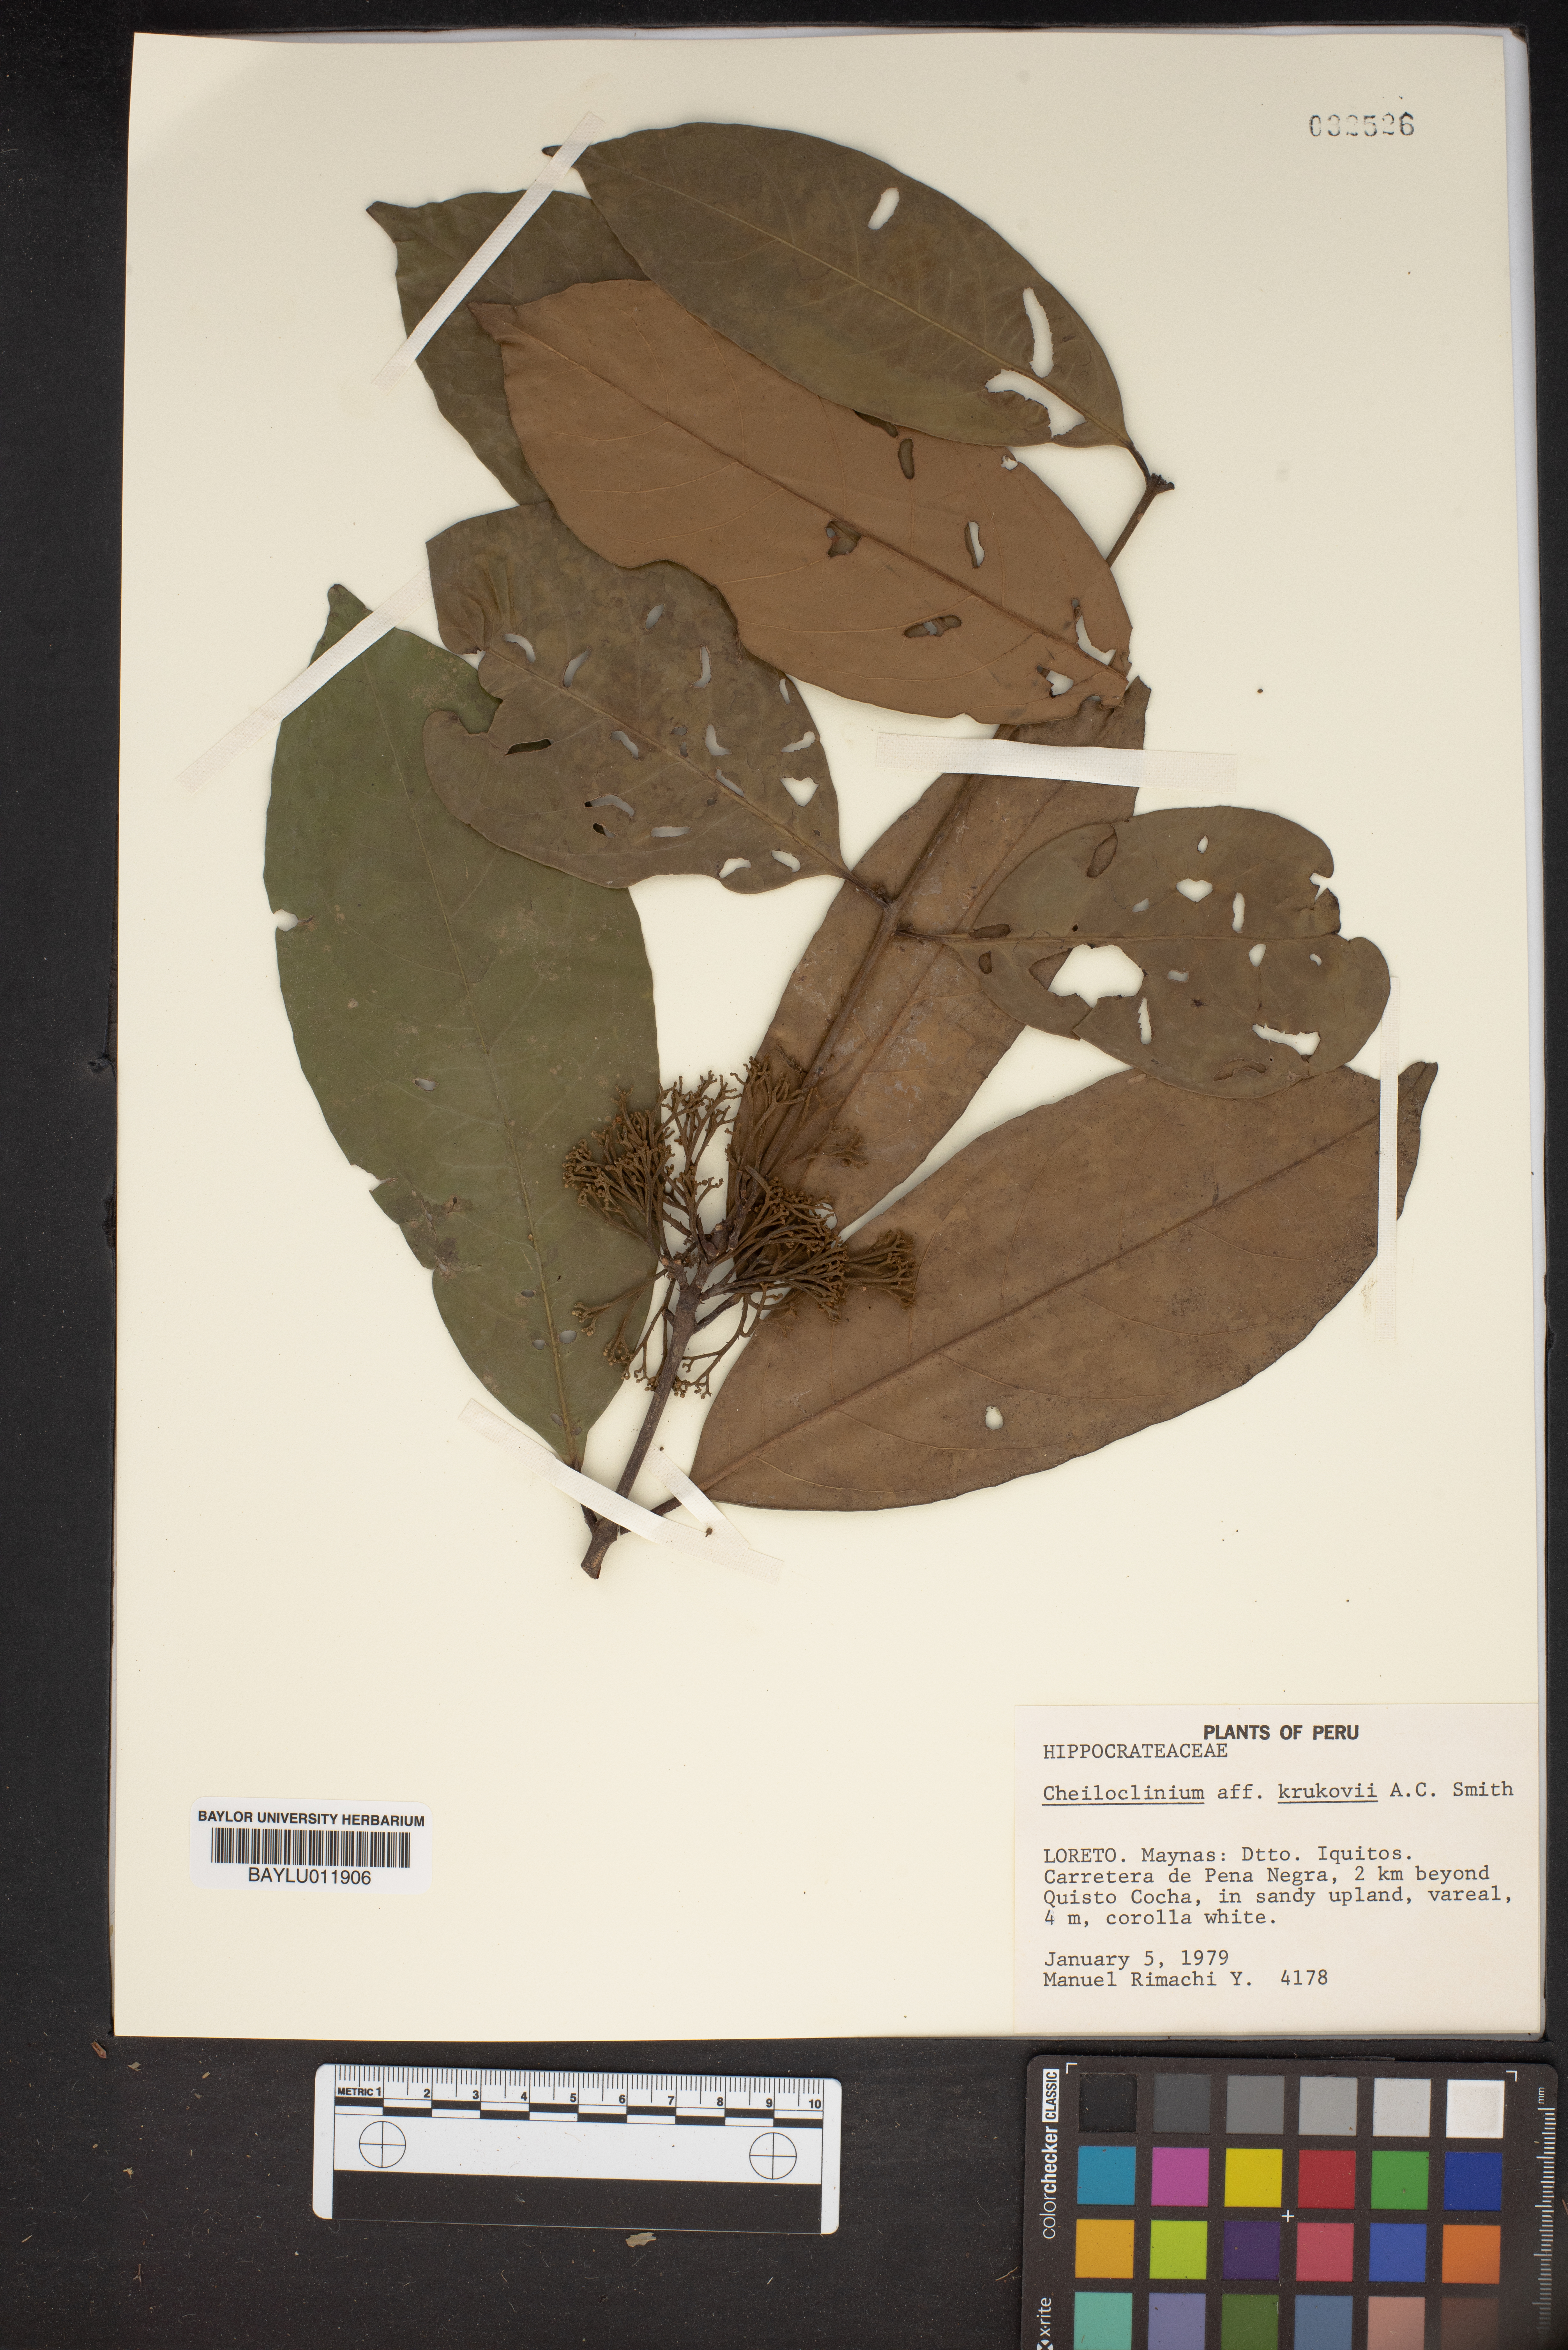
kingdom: Plantae
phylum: Tracheophyta
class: Magnoliopsida
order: Celastrales
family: Celastraceae
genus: Cheiloclinium
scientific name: Cheiloclinium gleasonianum
